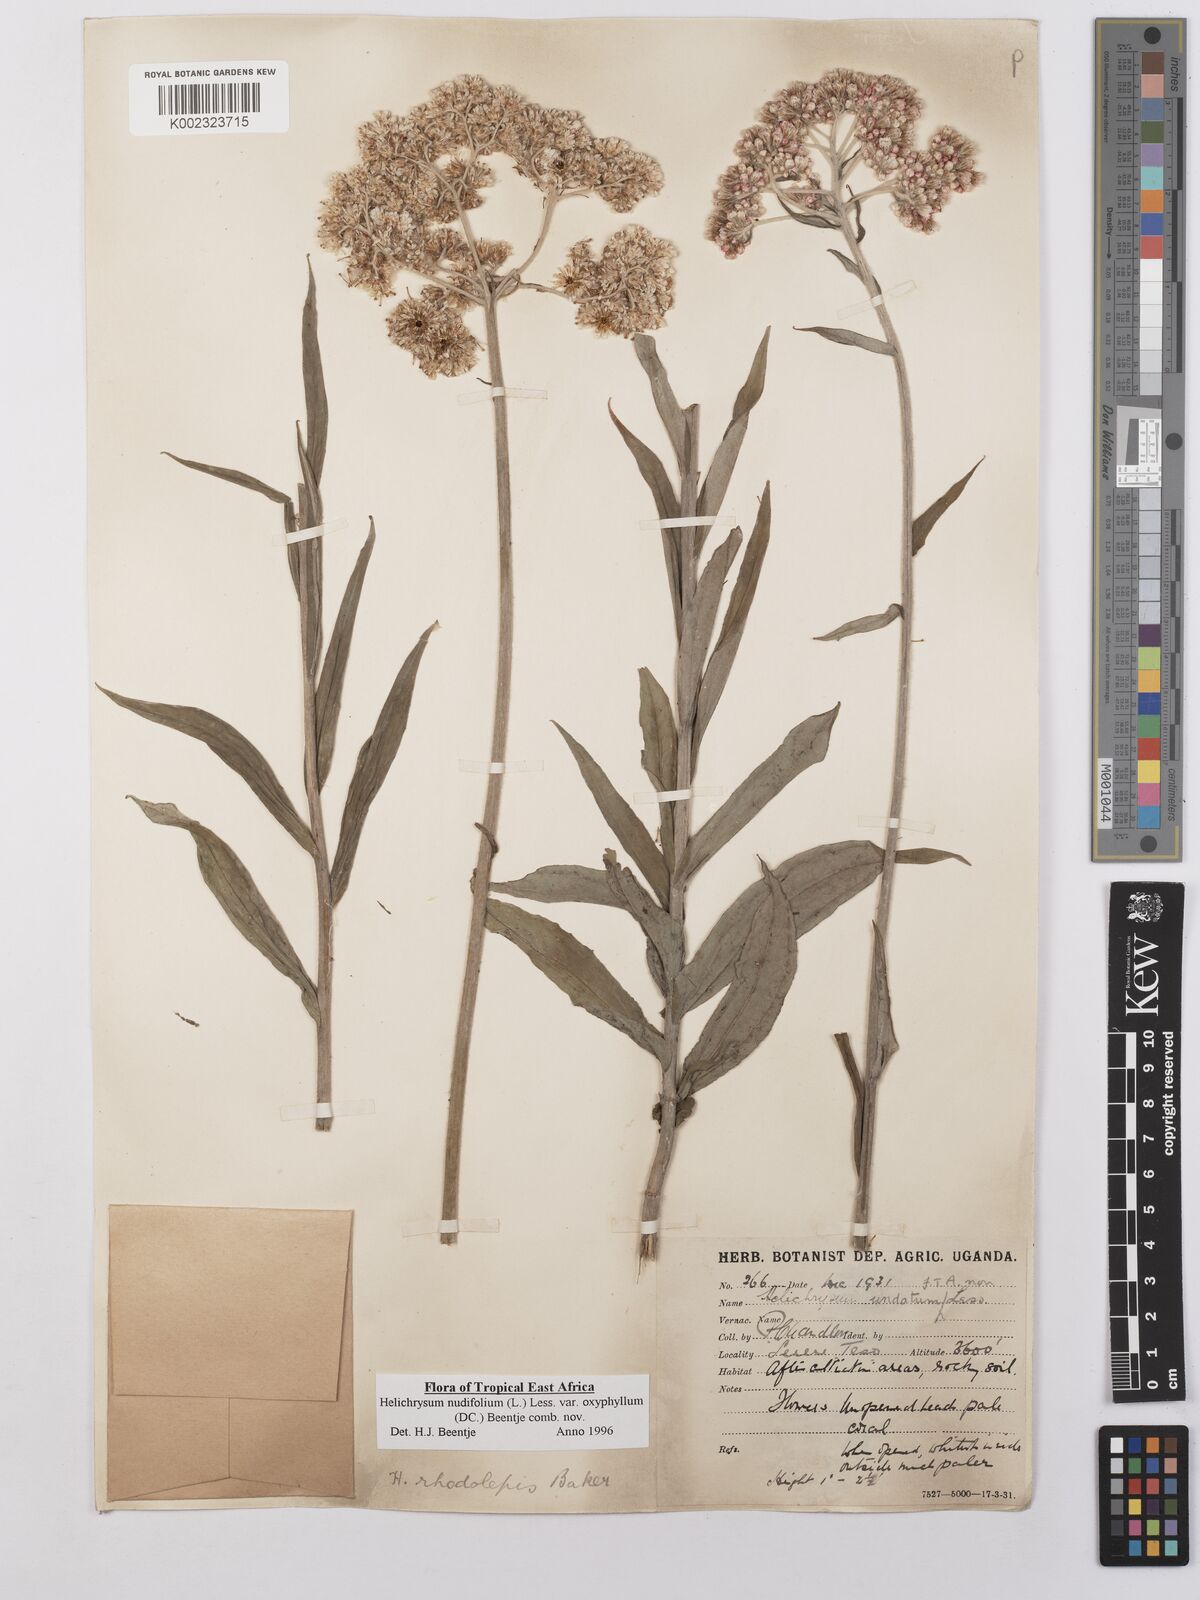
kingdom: Plantae
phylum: Tracheophyta
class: Magnoliopsida
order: Asterales
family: Asteraceae
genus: Helichrysum
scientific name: Helichrysum nudifolium
